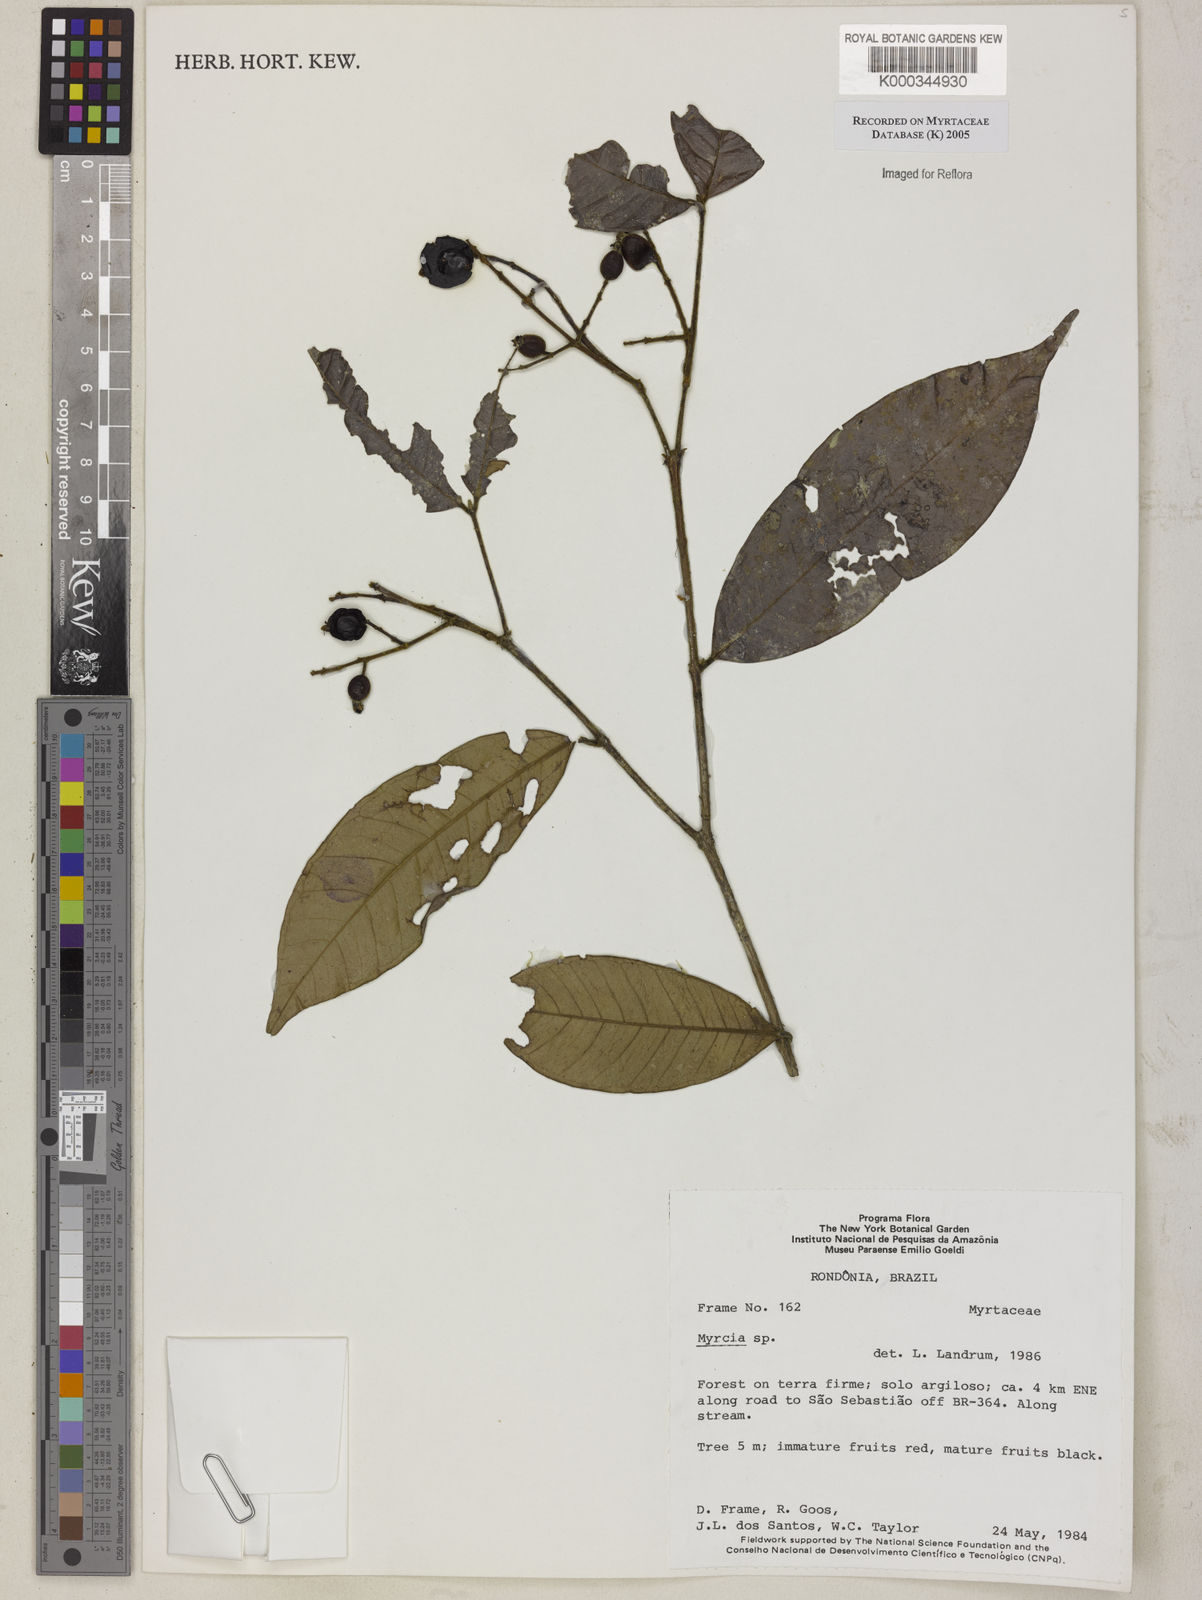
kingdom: Plantae
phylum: Tracheophyta
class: Magnoliopsida
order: Myrtales
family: Myrtaceae
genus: Myrcia
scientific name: Myrcia
